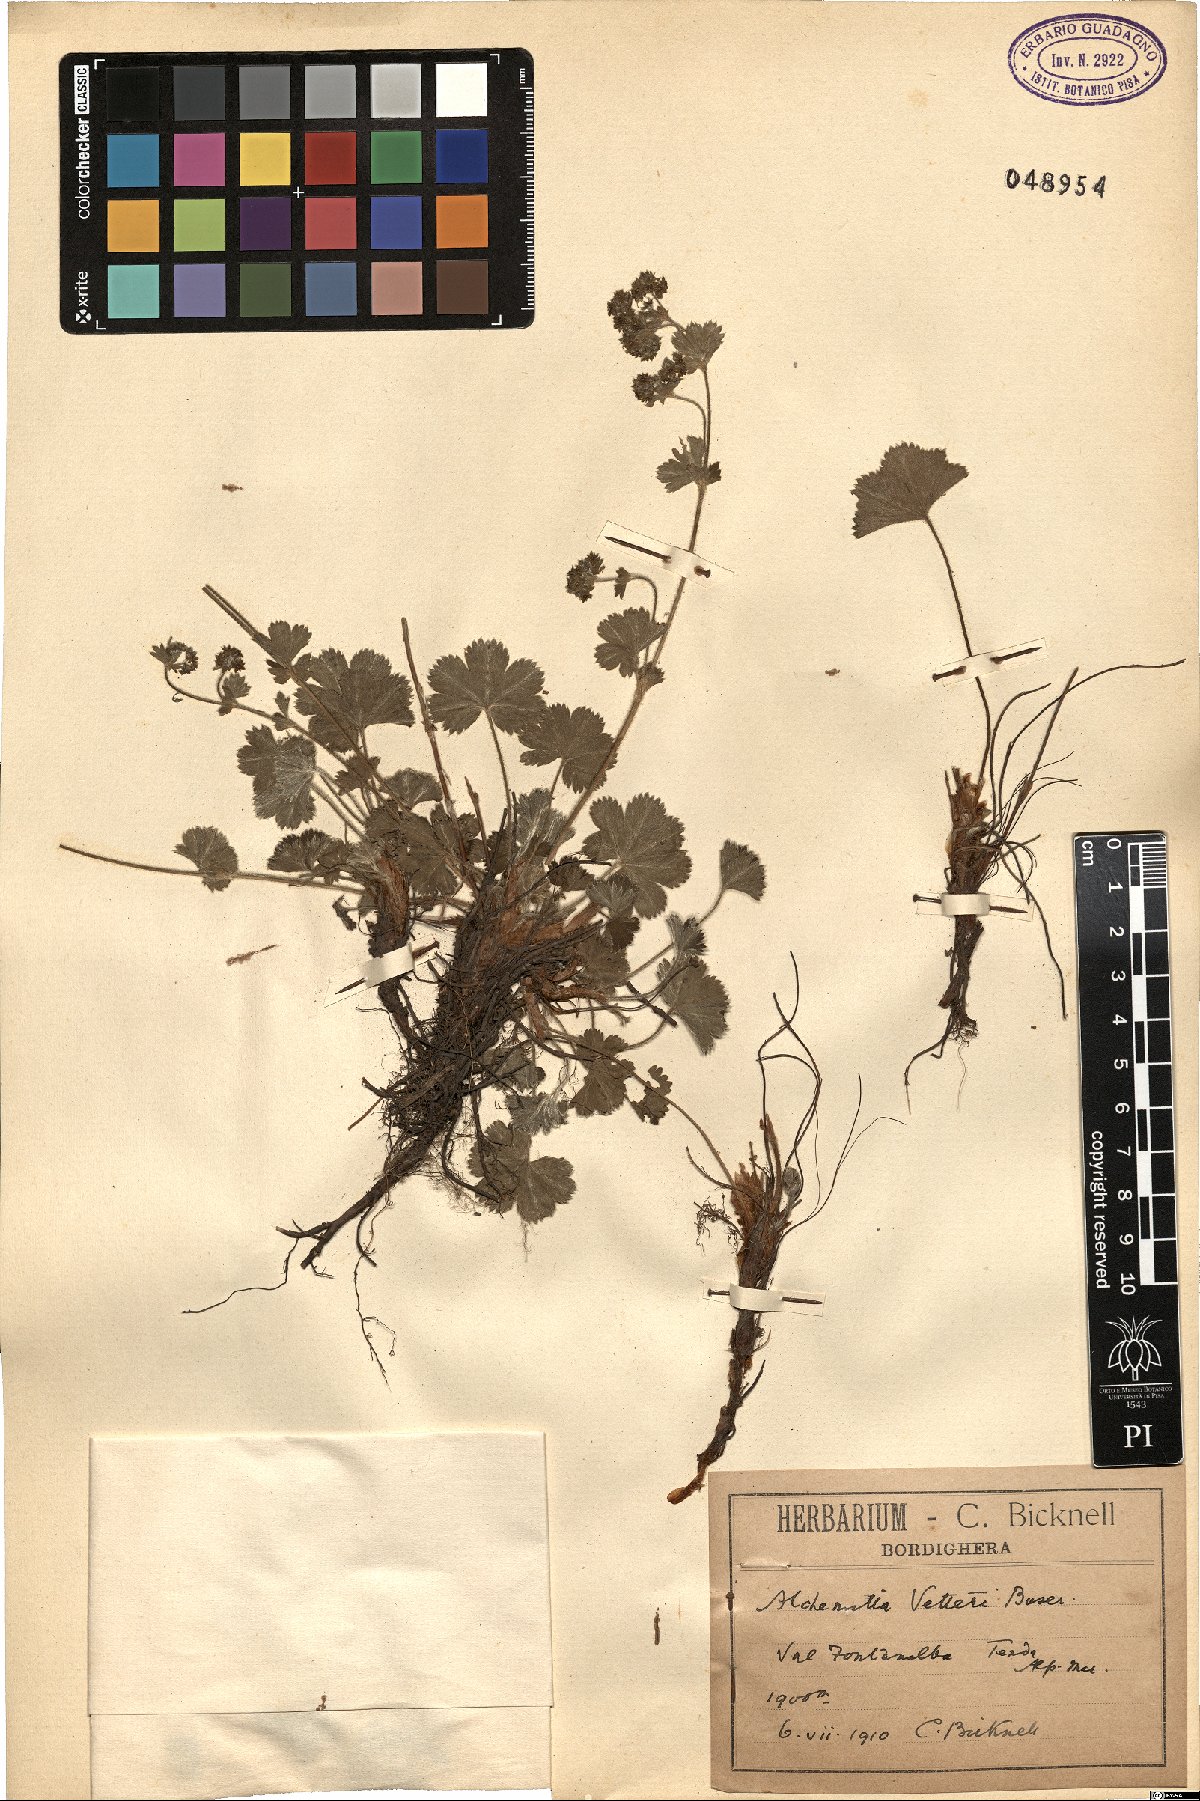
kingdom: Plantae
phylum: Tracheophyta
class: Magnoliopsida
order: Rosales
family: Rosaceae
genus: Alchemilla
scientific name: Alchemilla vetteri
